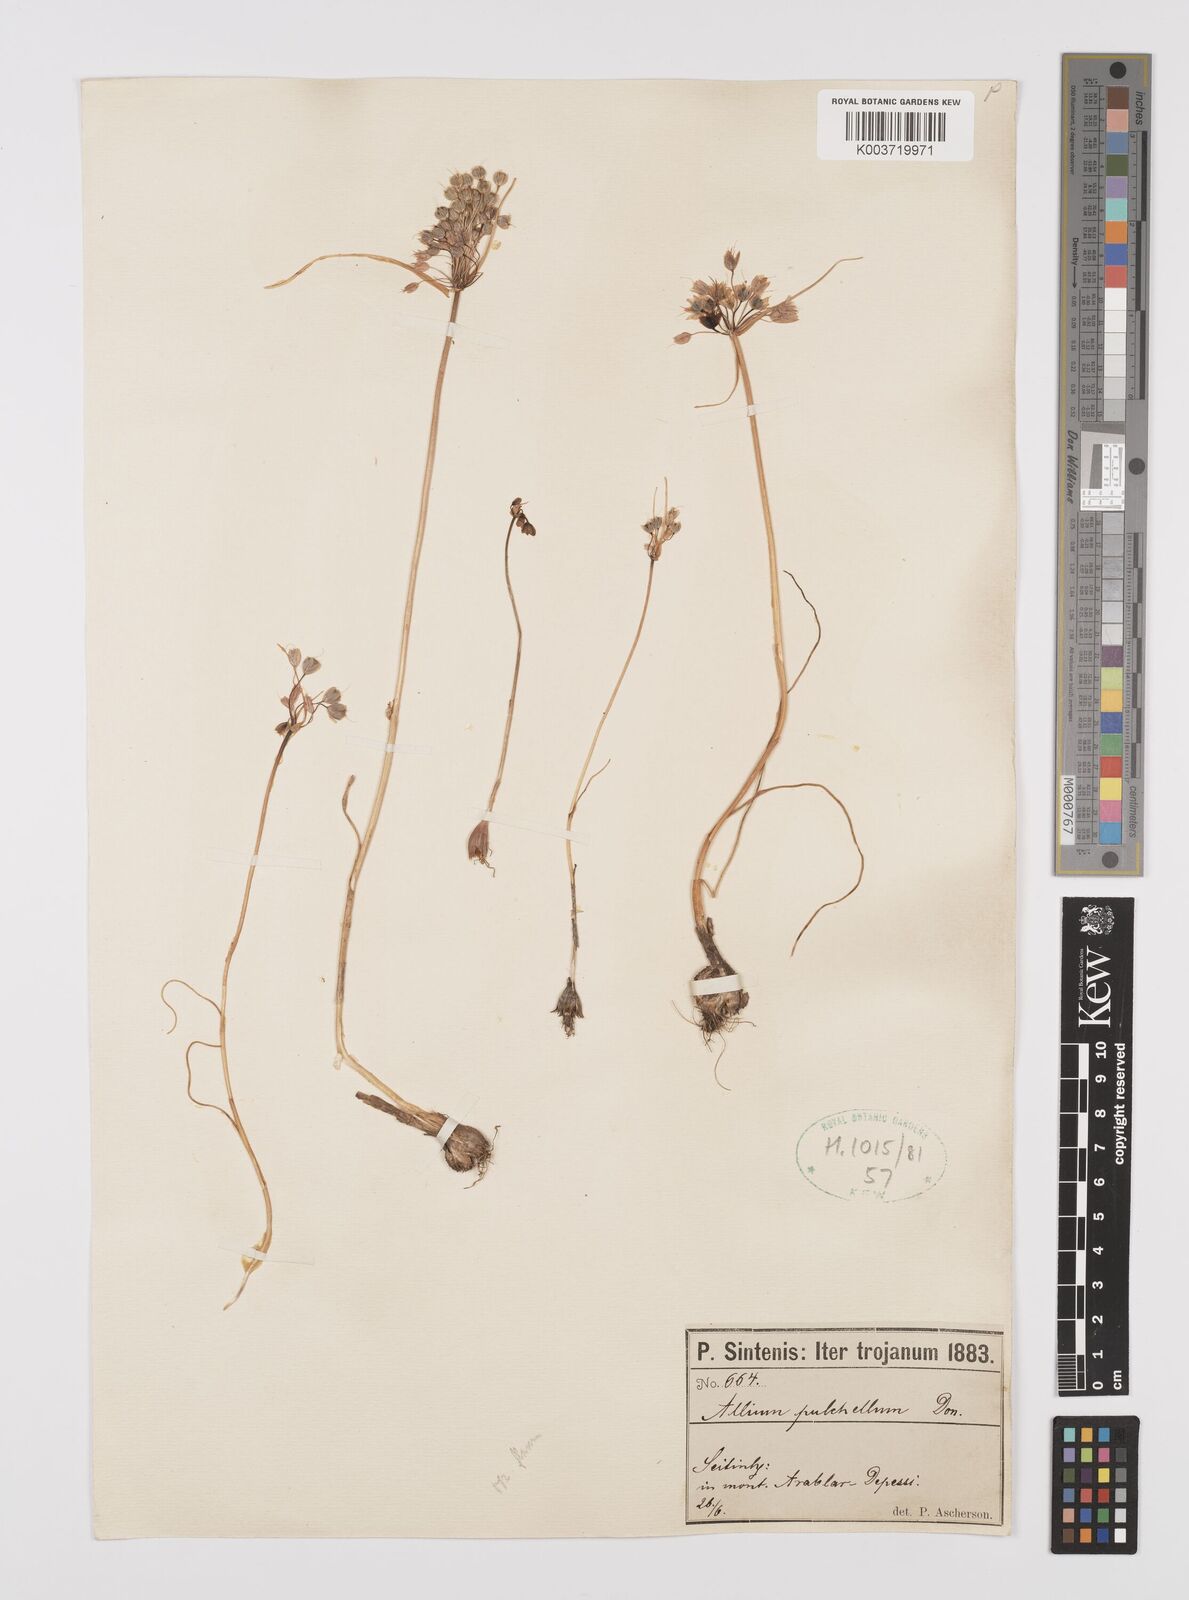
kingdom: Plantae
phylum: Tracheophyta
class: Liliopsida
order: Asparagales
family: Amaryllidaceae
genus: Allium
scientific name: Allium coloratum
